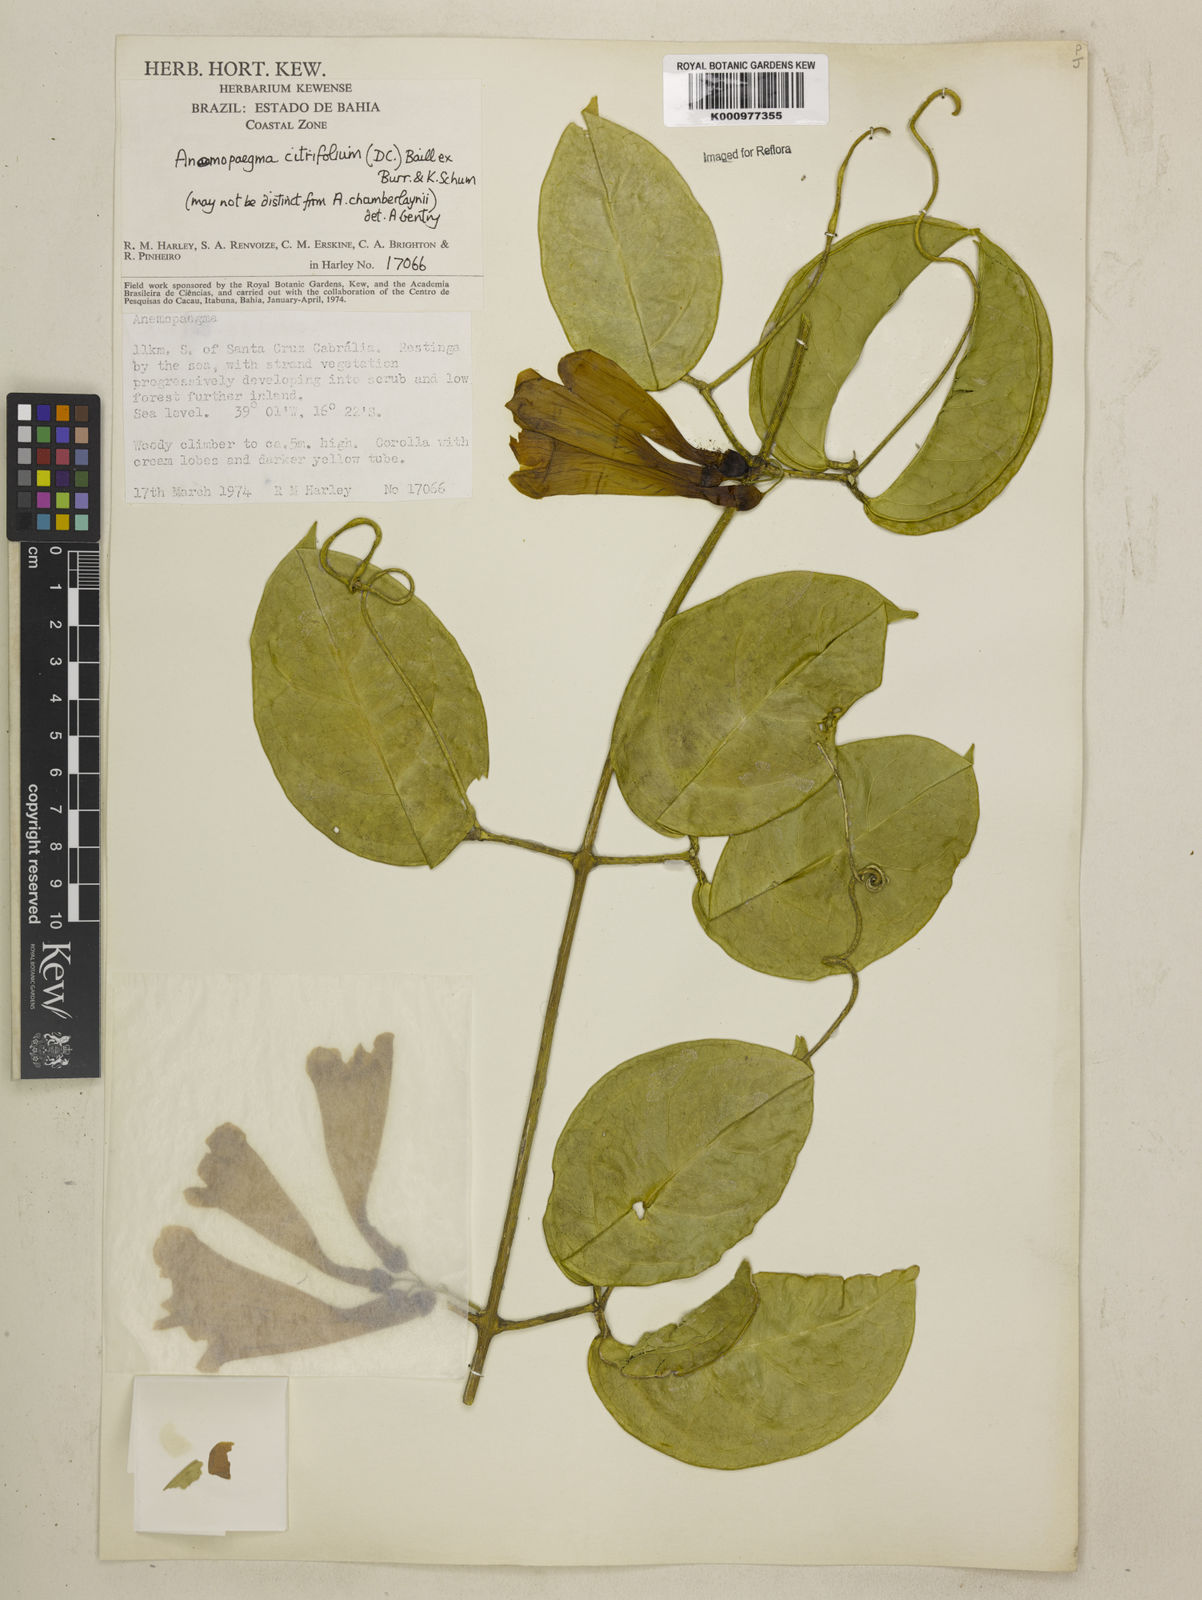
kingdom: Plantae
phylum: Tracheophyta
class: Magnoliopsida
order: Lamiales
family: Bignoniaceae
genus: Anemopaegma
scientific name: Anemopaegma citrinum
